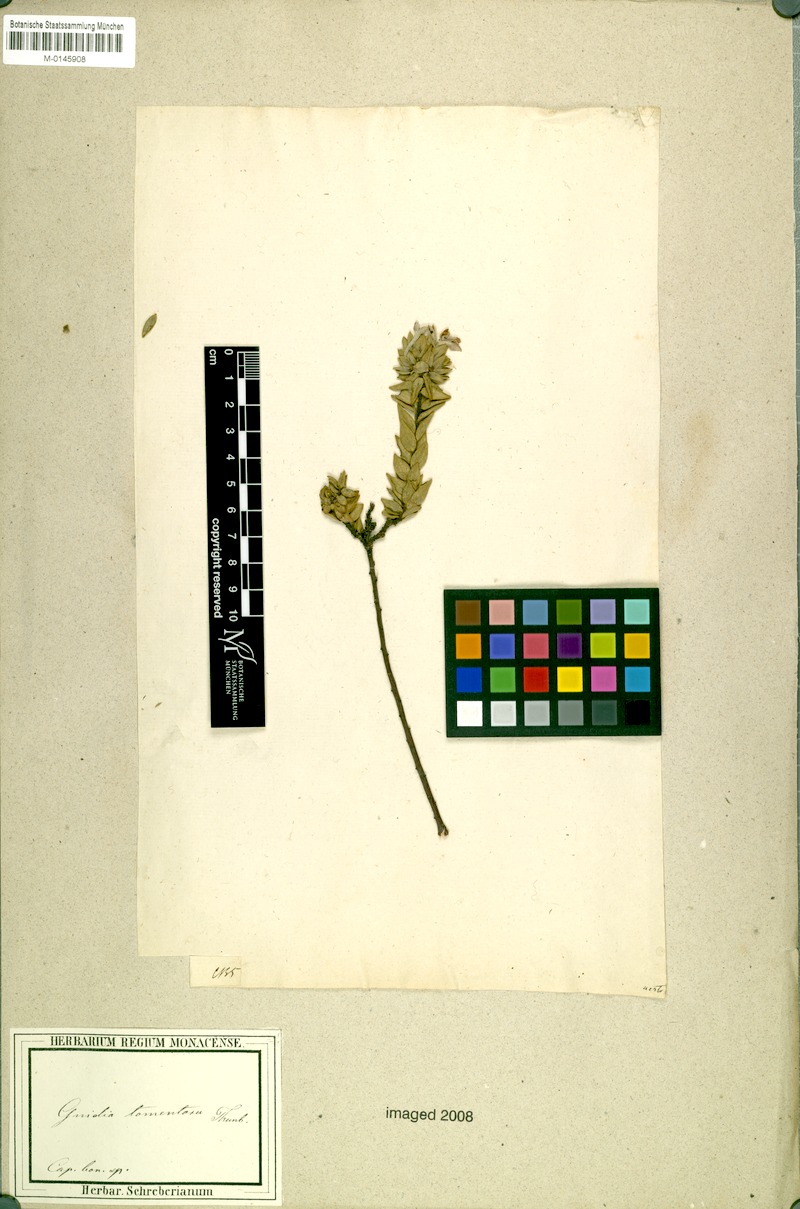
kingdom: Plantae
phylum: Tracheophyta
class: Magnoliopsida
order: Malvales
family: Thymelaeaceae
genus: Gnidia
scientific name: Gnidia tomentosa
